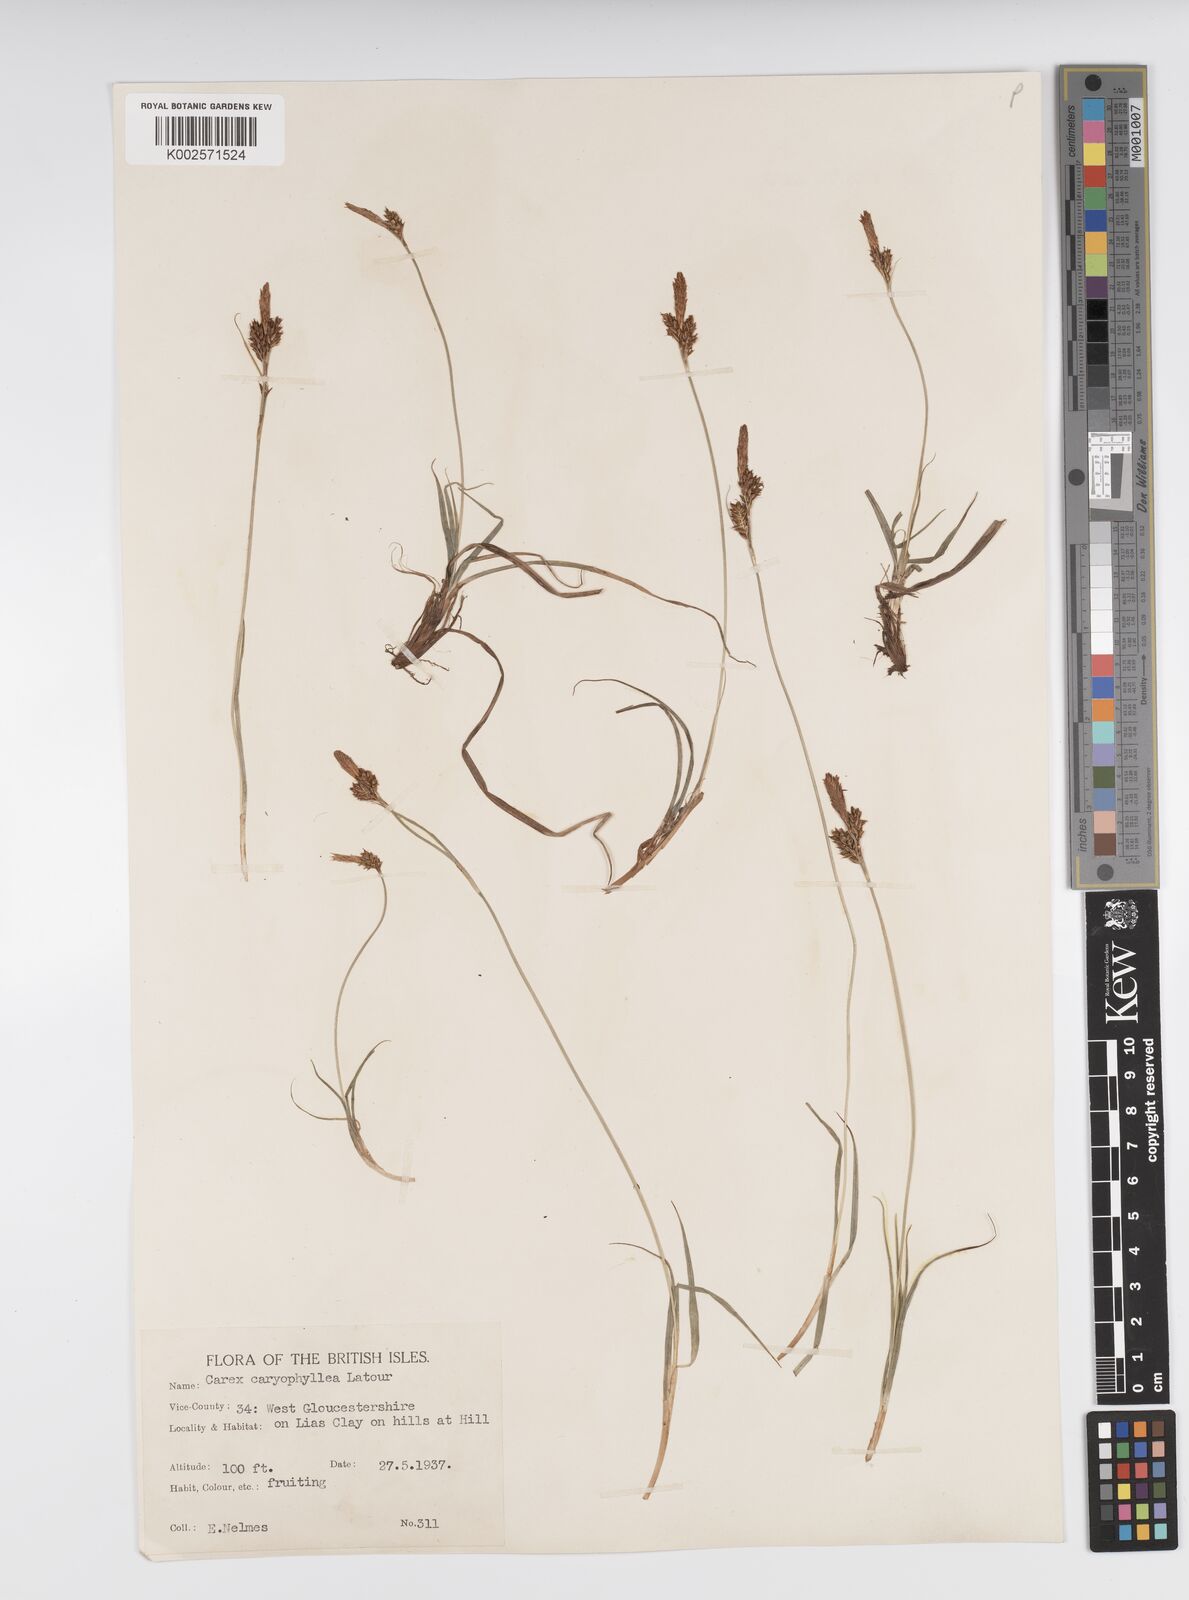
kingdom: Plantae
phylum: Tracheophyta
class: Liliopsida
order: Poales
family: Cyperaceae
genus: Carex
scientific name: Carex caryophyllea
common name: Spring sedge
